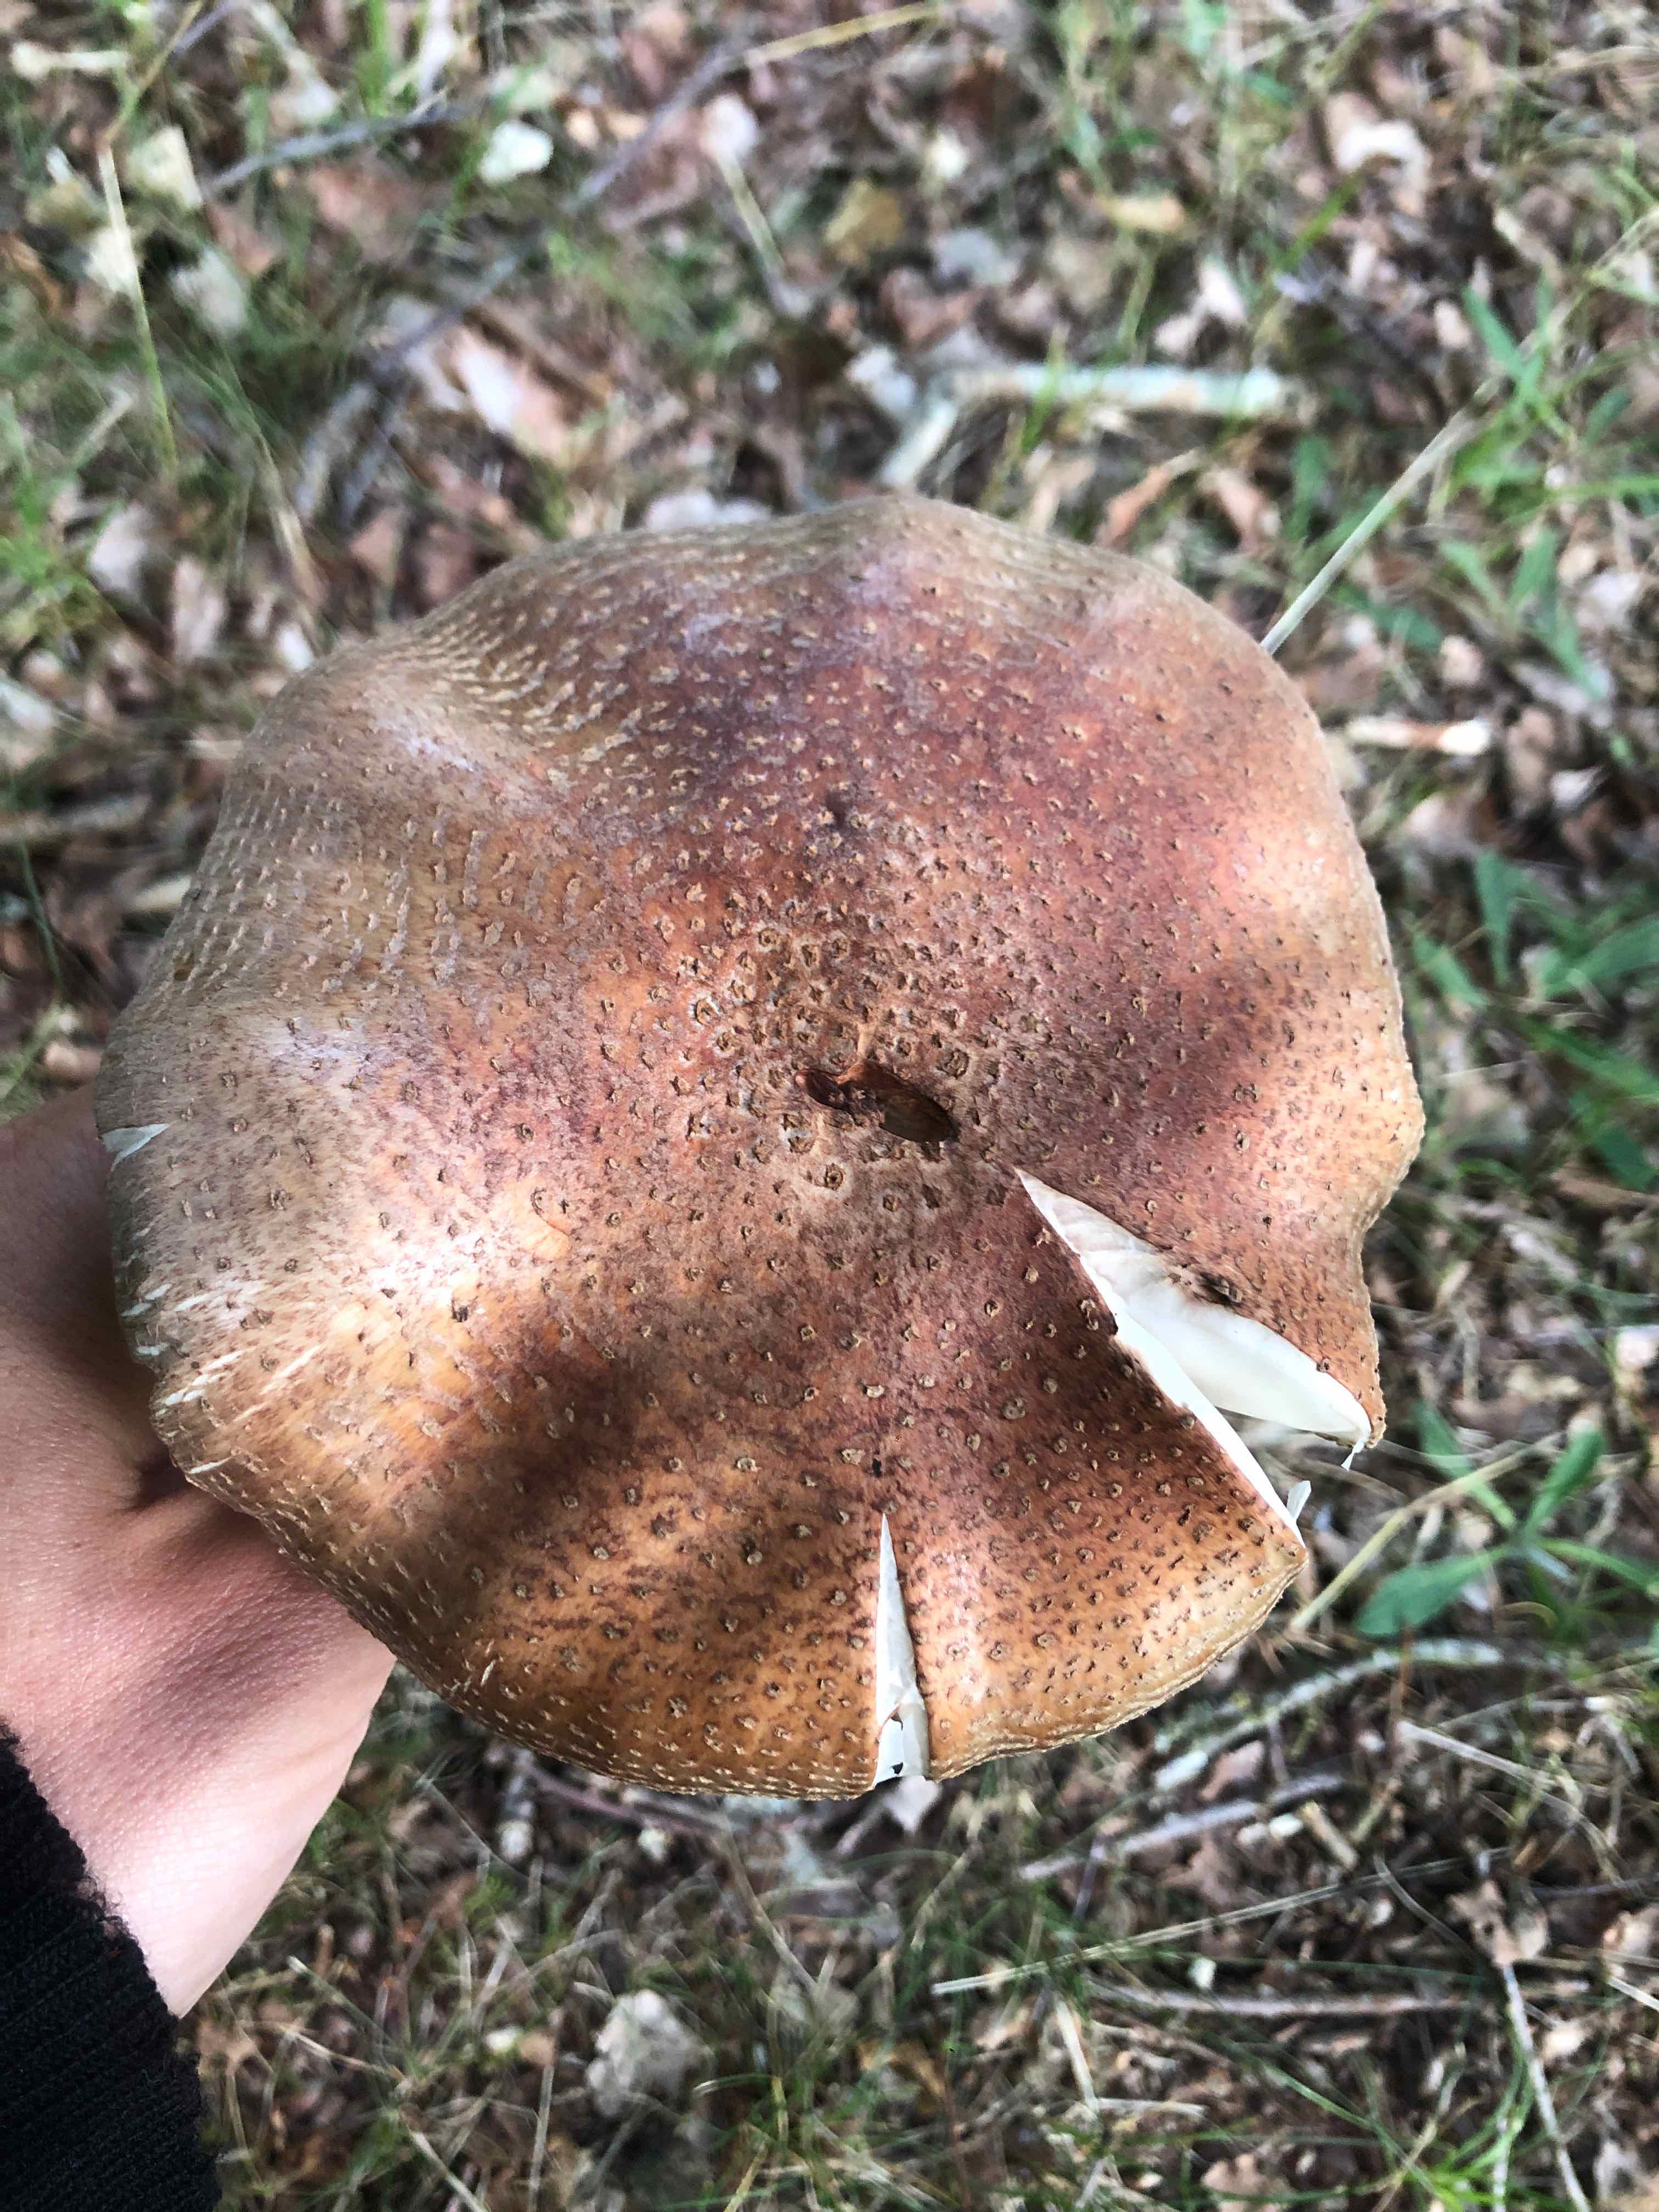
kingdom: Fungi
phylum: Basidiomycota
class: Agaricomycetes
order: Agaricales
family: Amanitaceae
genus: Amanita
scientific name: Amanita rubescens
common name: rødmende fluesvamp
